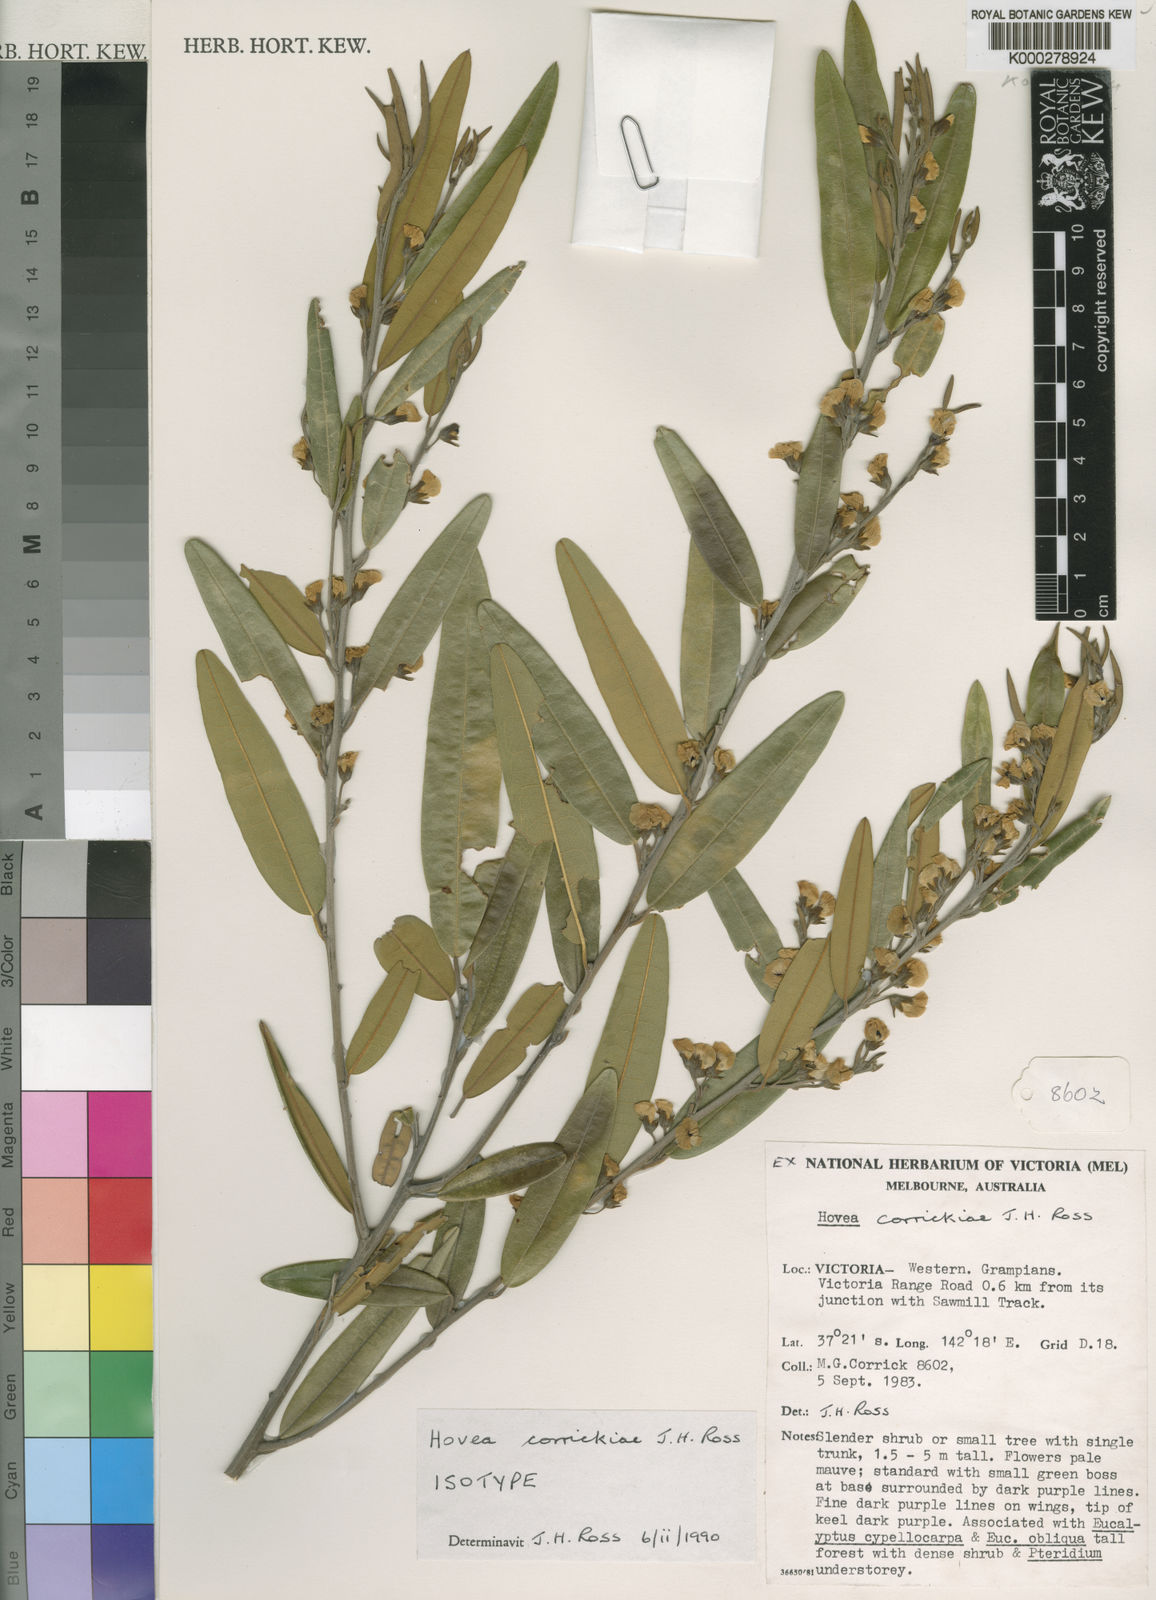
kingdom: Plantae
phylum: Tracheophyta
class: Magnoliopsida
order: Fabales
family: Fabaceae
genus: Hovea
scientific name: Hovea corrickiae
